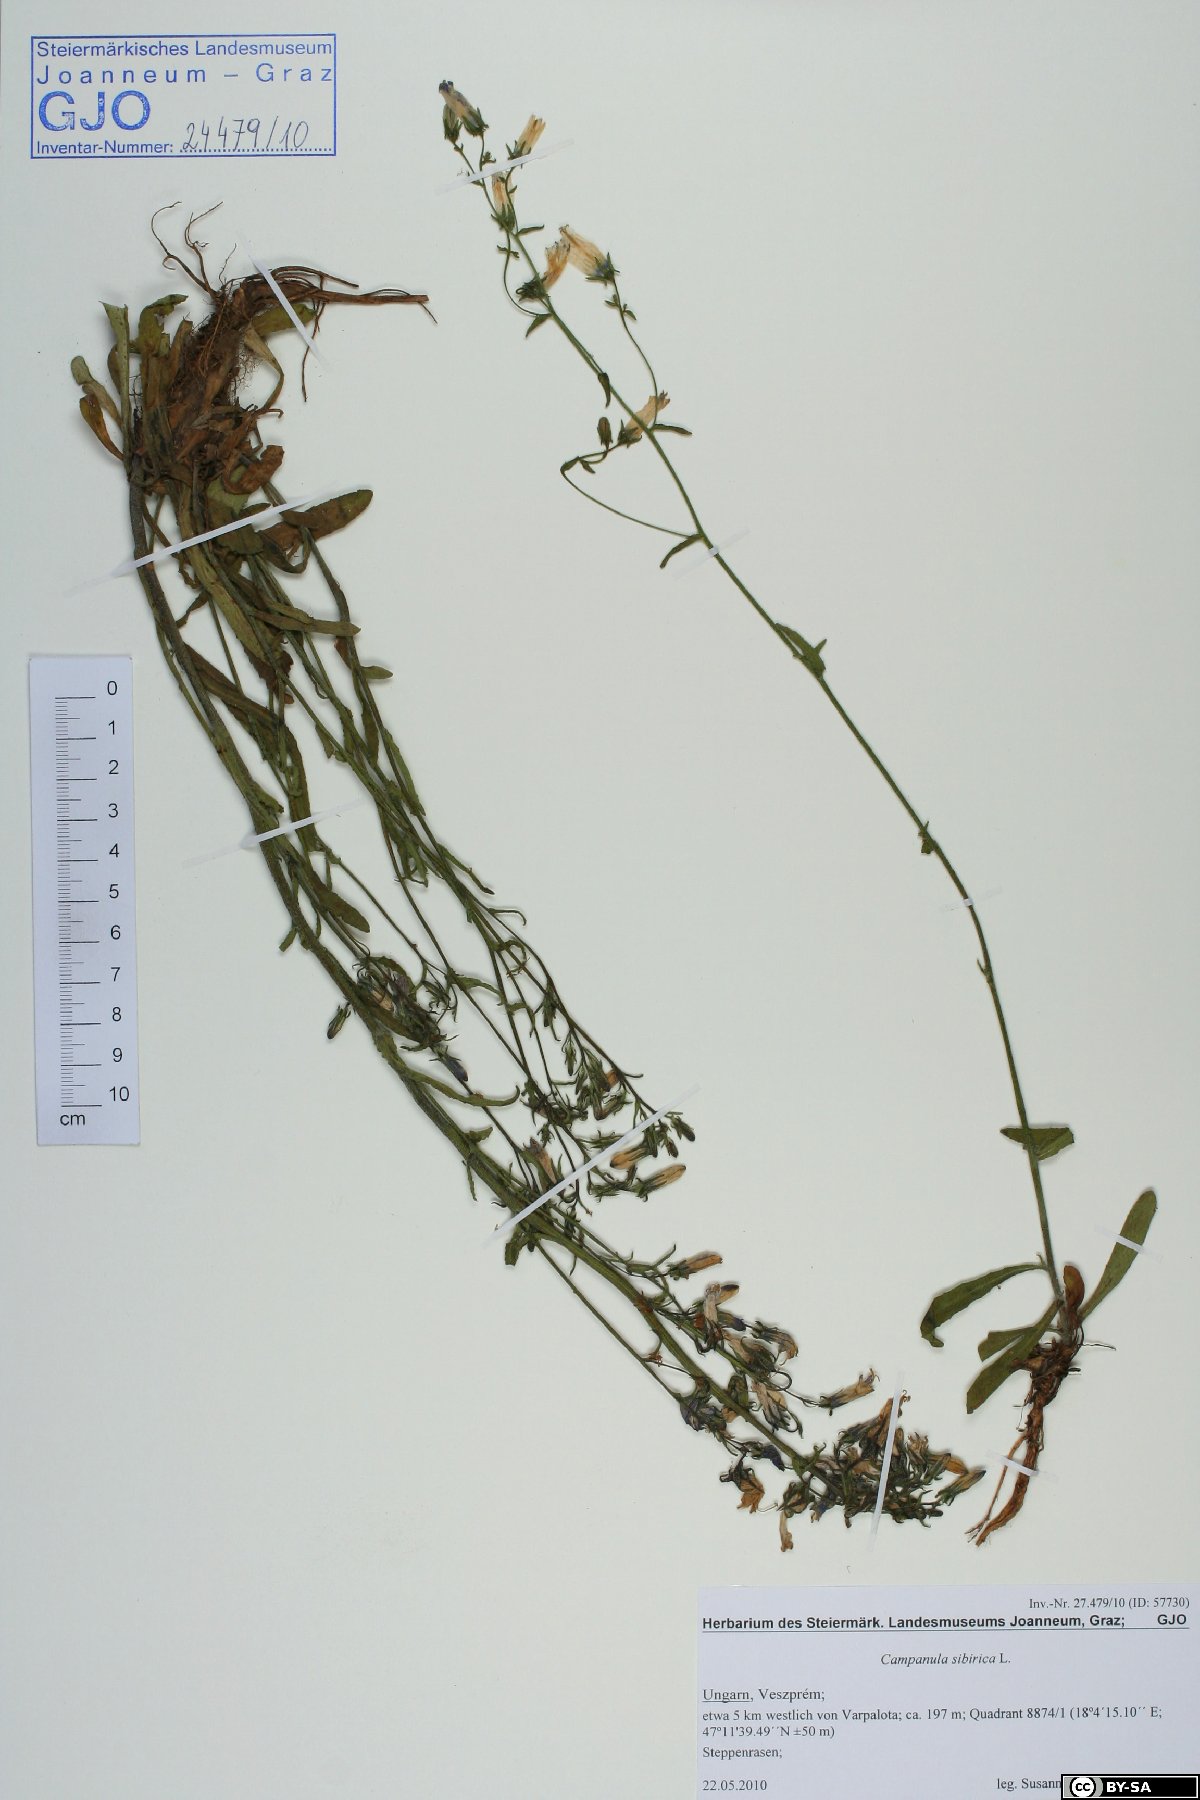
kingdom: Plantae
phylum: Tracheophyta
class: Magnoliopsida
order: Asterales
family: Campanulaceae
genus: Campanula
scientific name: Campanula sibirica
